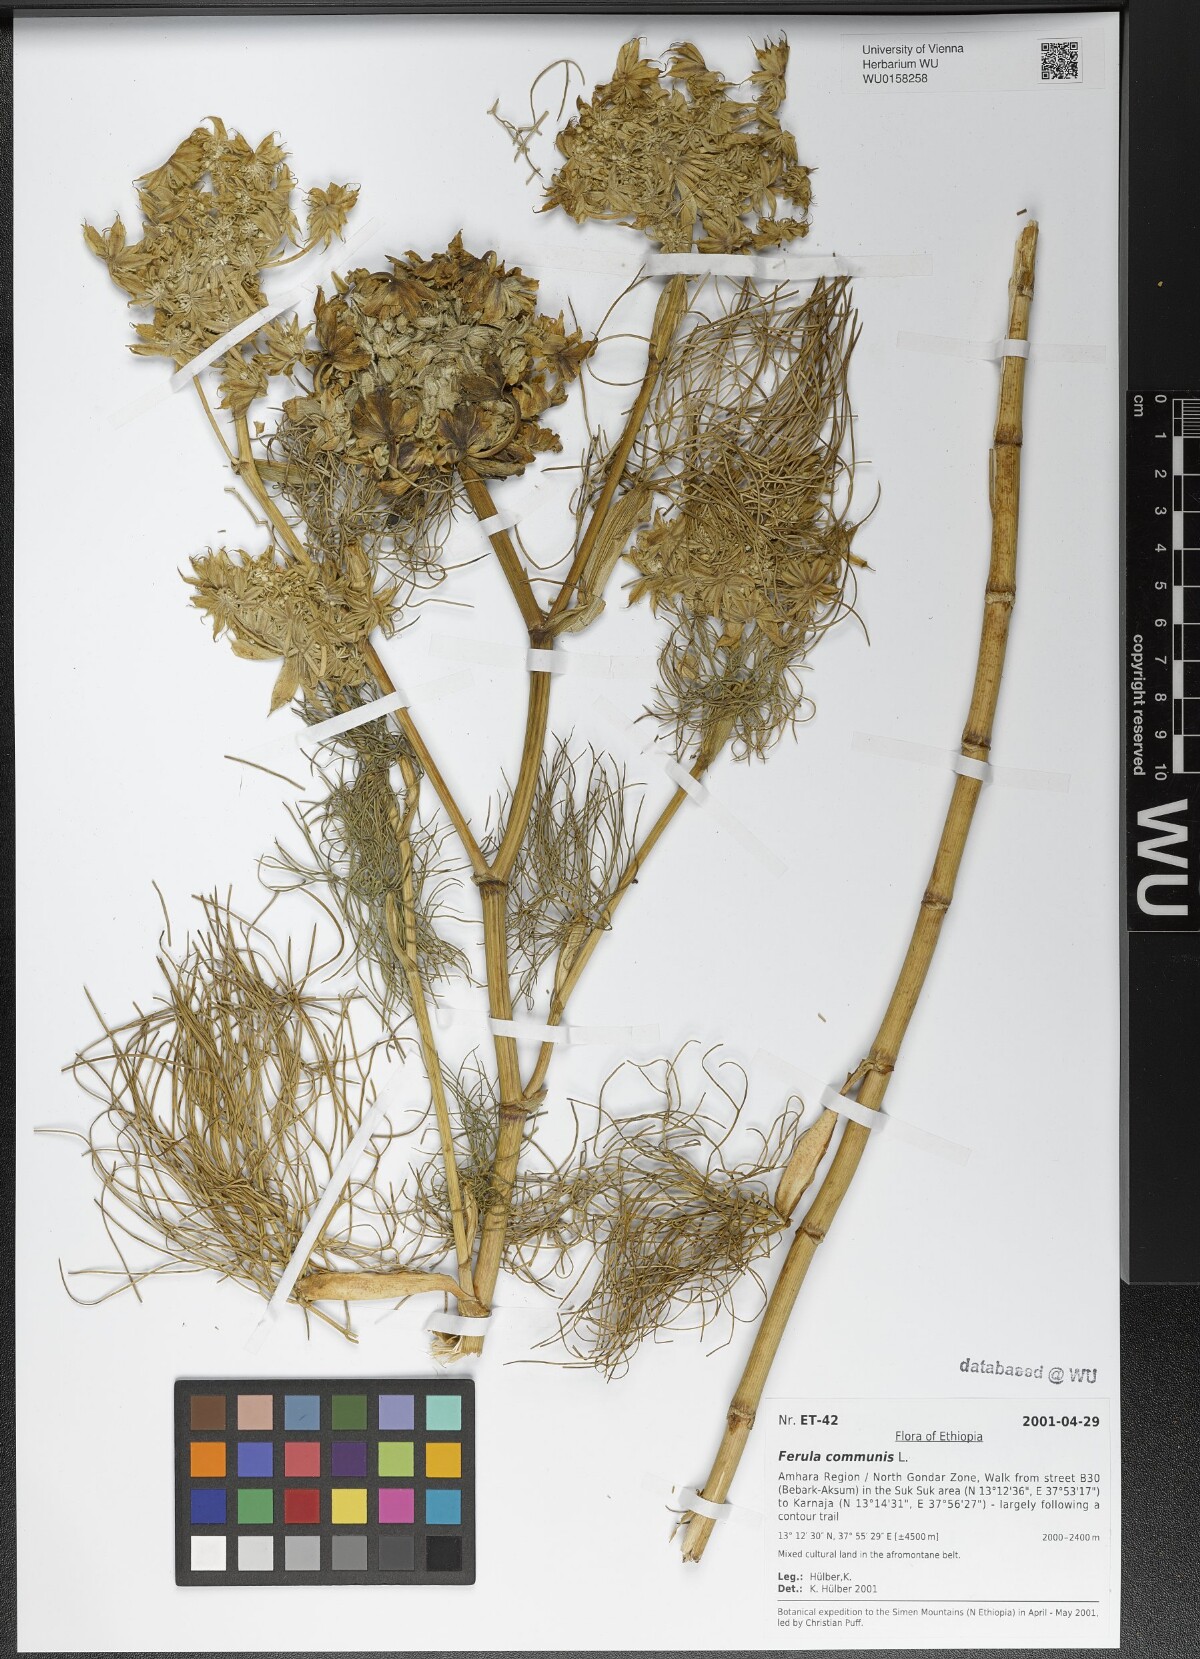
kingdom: Plantae
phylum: Tracheophyta
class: Magnoliopsida
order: Apiales
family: Apiaceae
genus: Ferula
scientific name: Ferula communis
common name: Giant fennel
